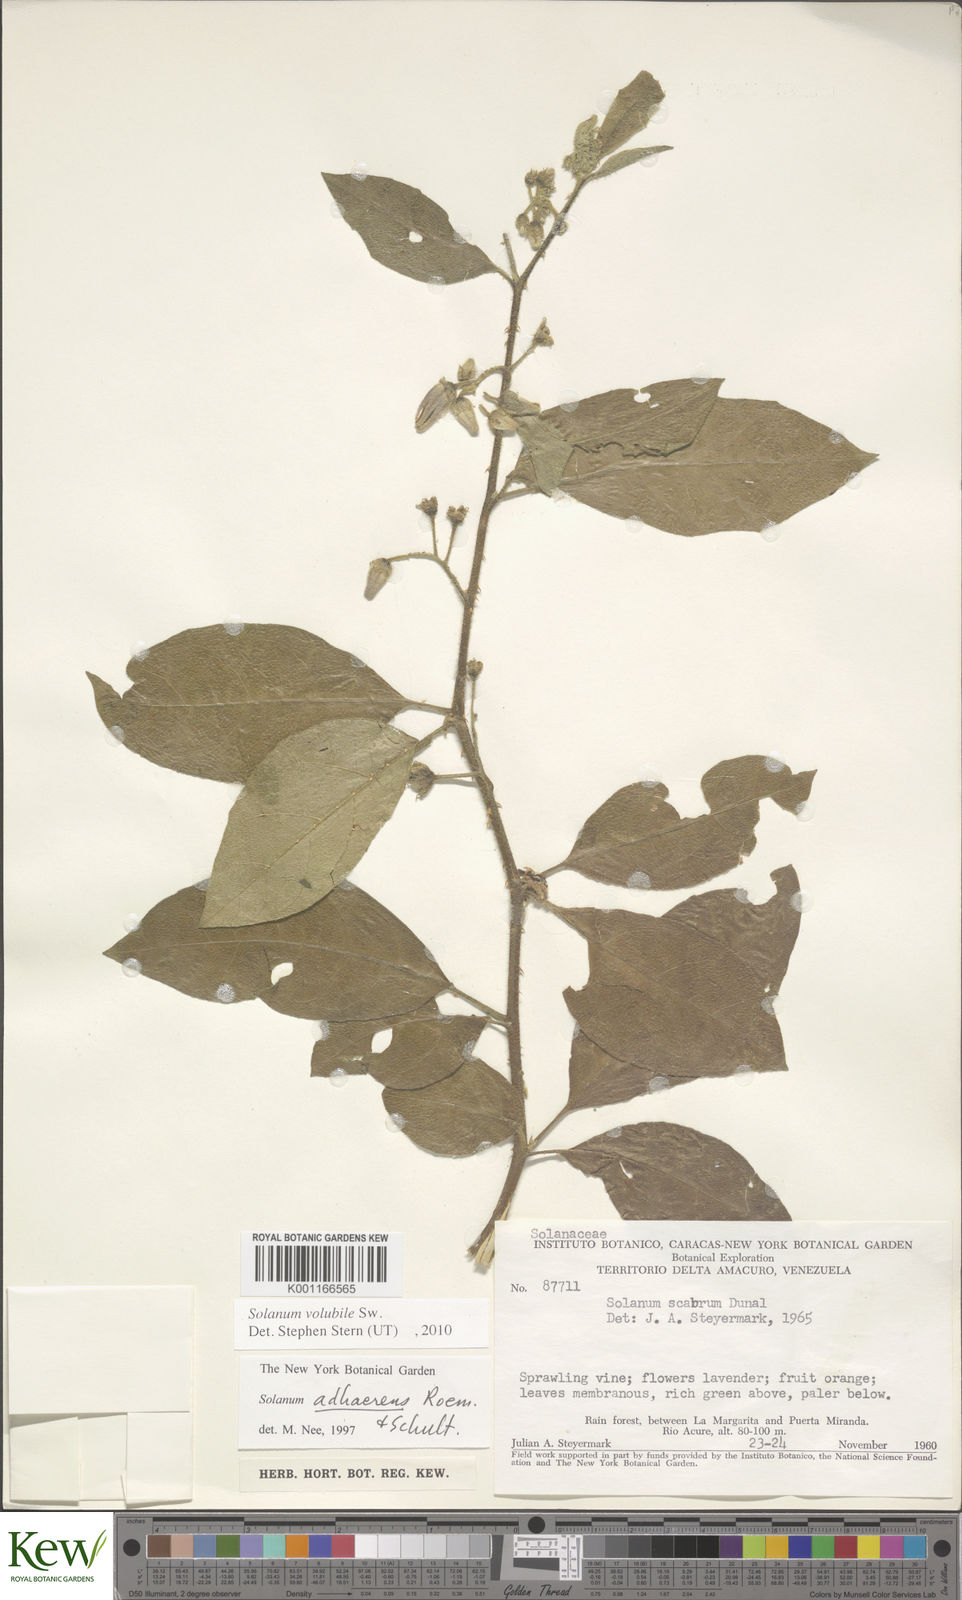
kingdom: Plantae
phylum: Tracheophyta
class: Magnoliopsida
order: Solanales
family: Solanaceae
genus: Solanum
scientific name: Solanum volubile
